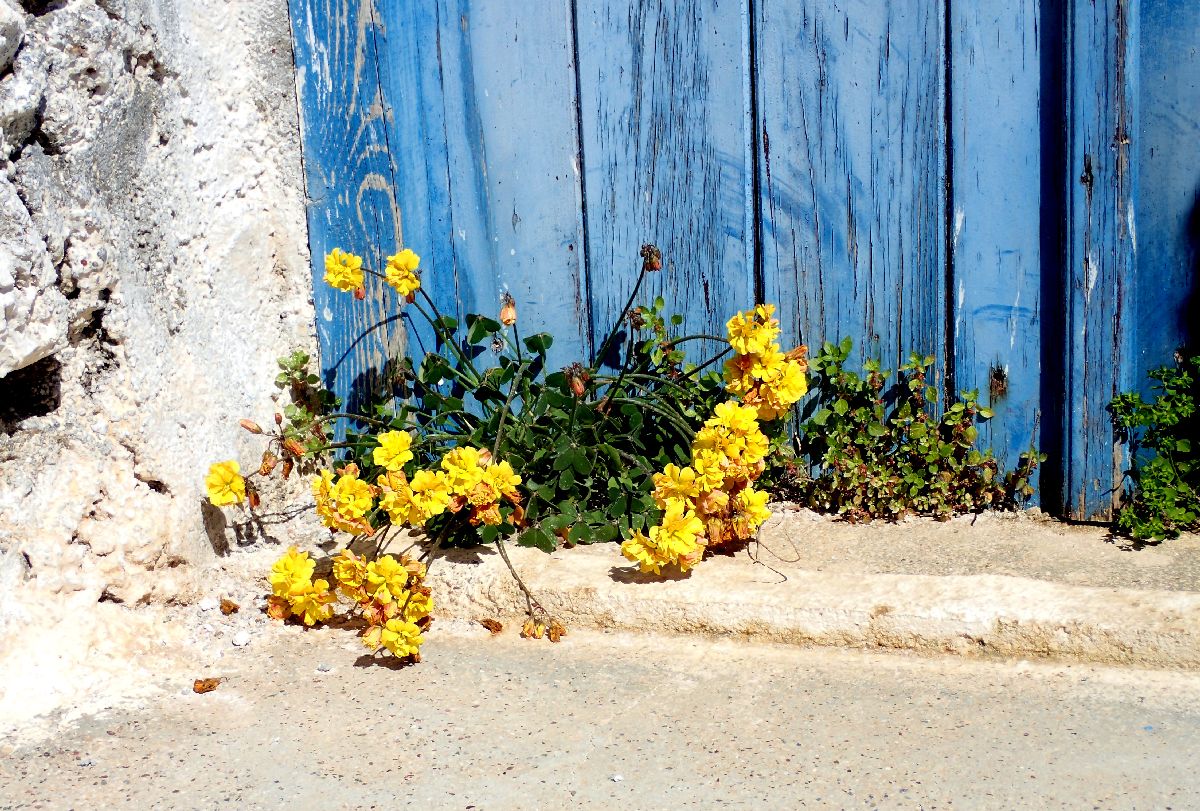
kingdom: Plantae
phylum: Tracheophyta
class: Magnoliopsida
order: Oxalidales
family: Oxalidaceae
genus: Oxalis
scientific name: Oxalis pes-caprae
